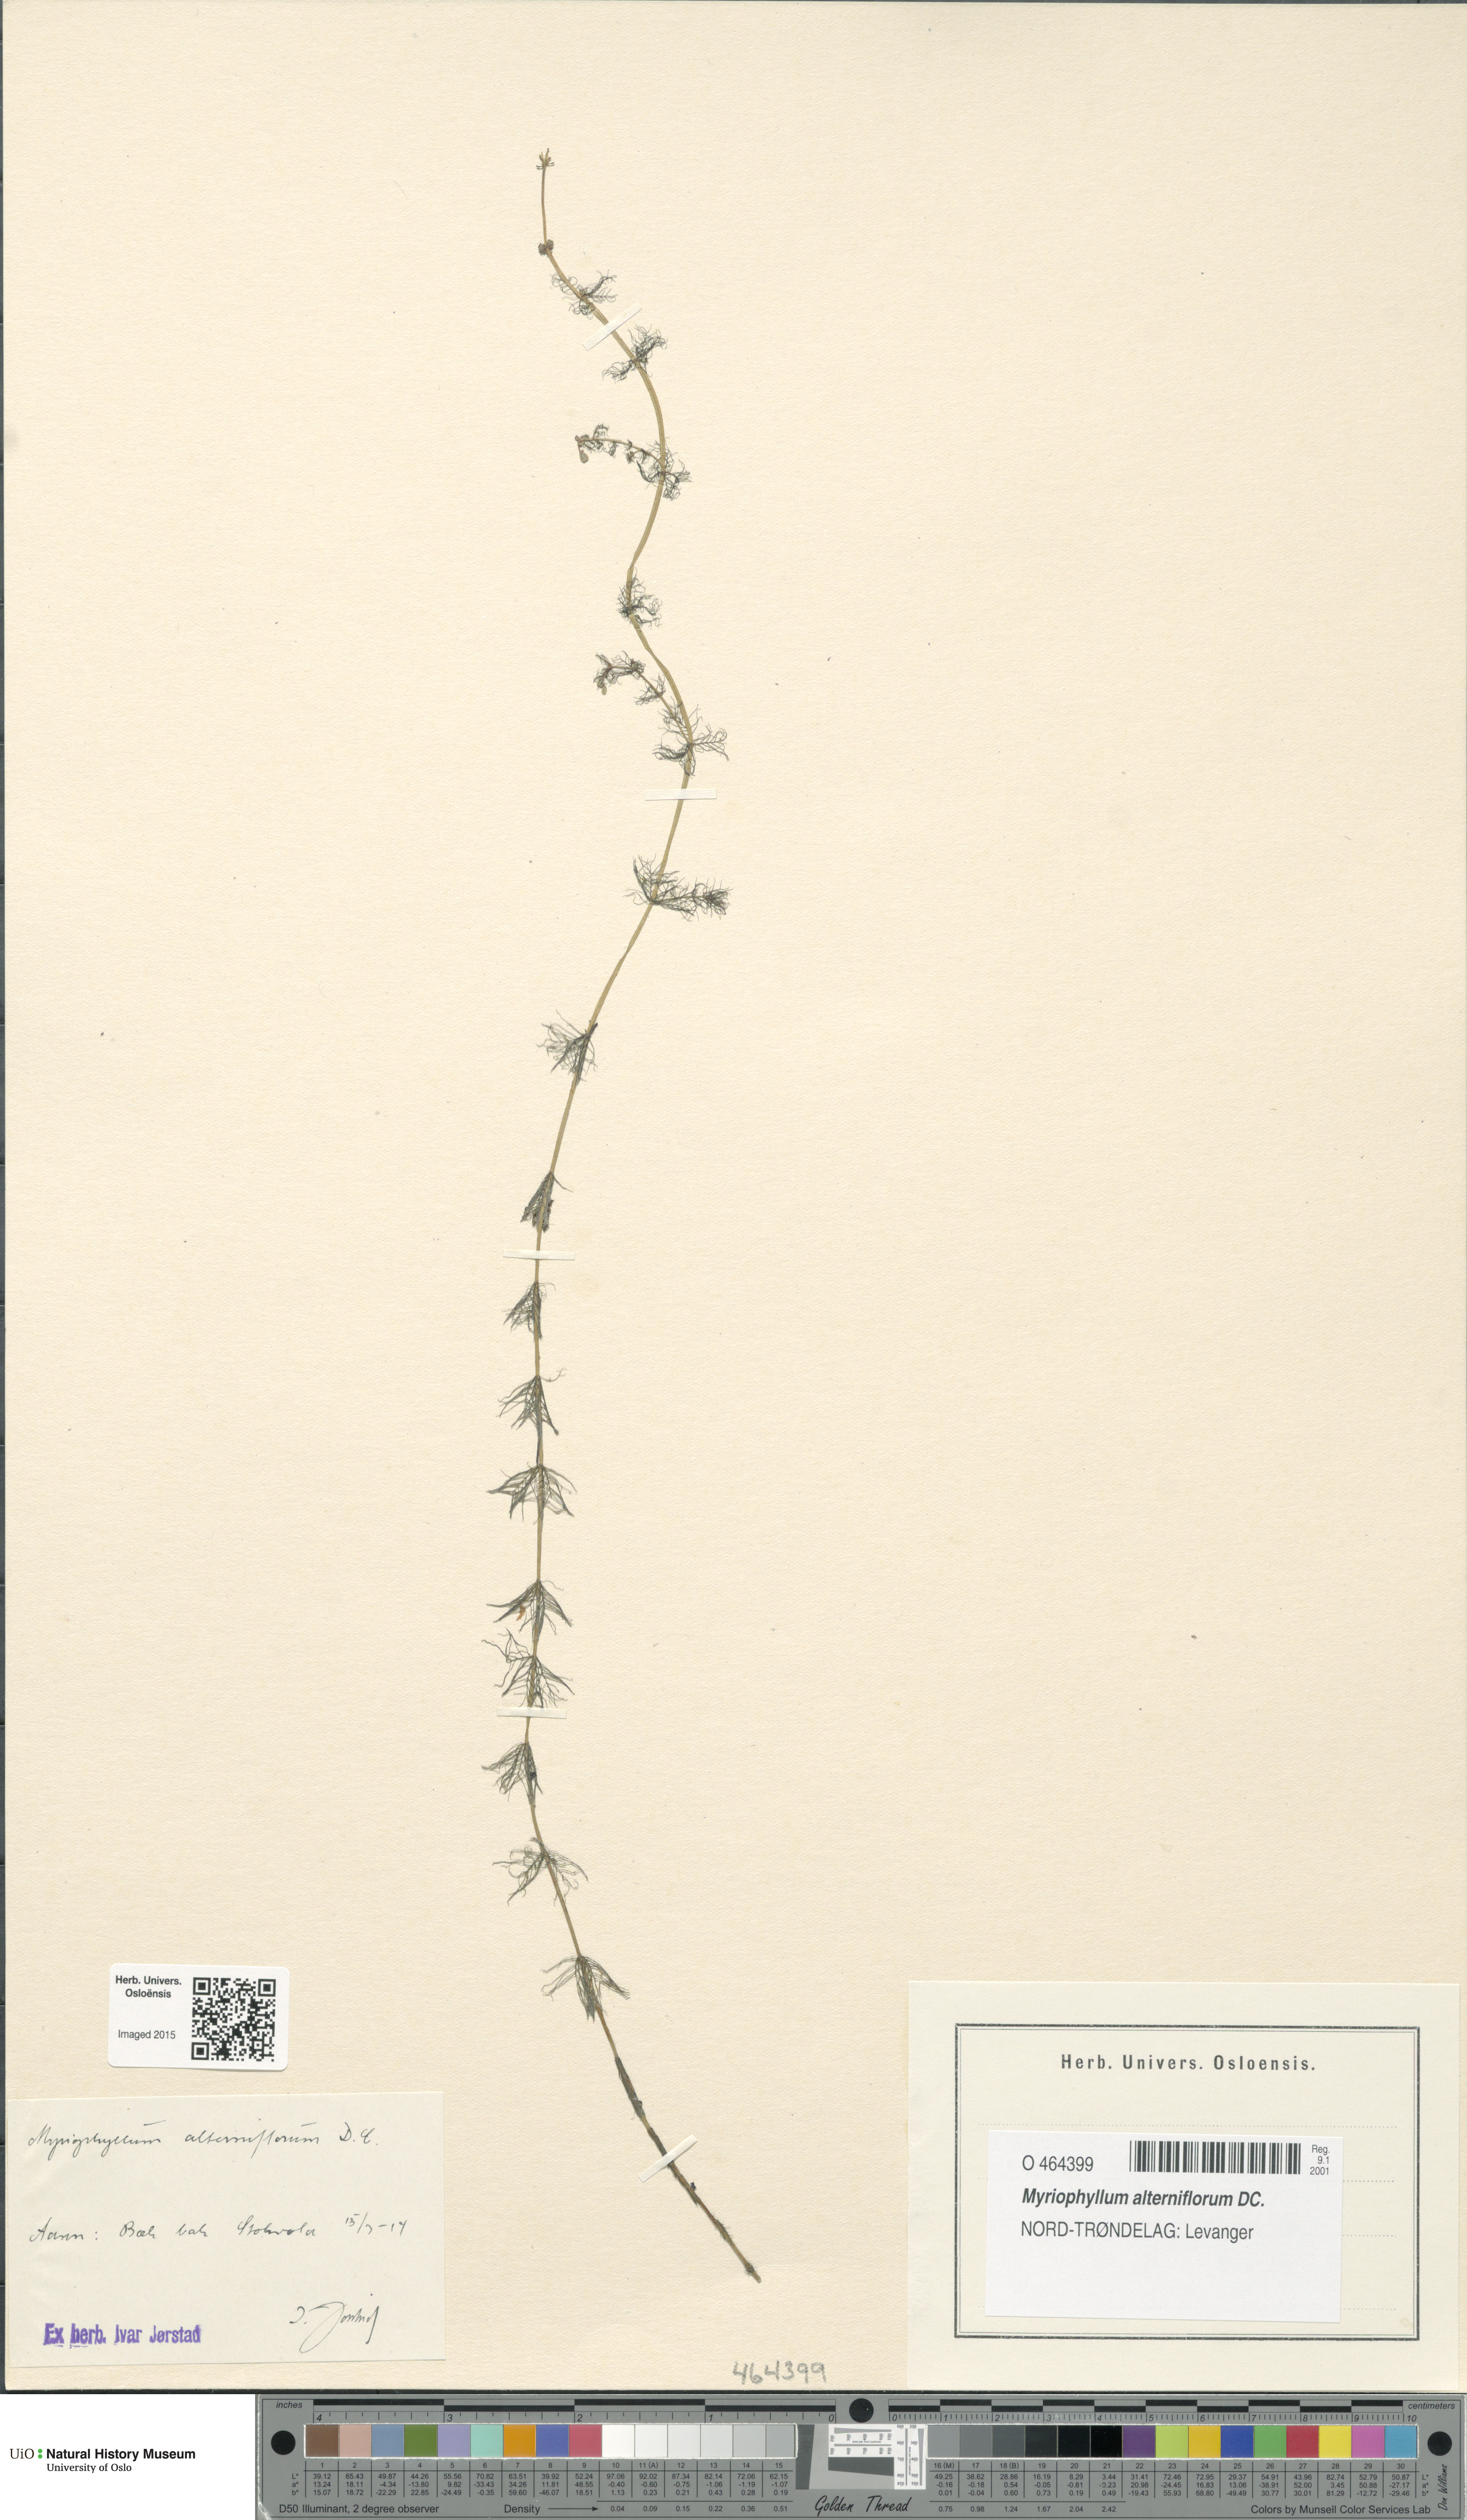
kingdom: Plantae
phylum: Tracheophyta
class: Magnoliopsida
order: Saxifragales
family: Haloragaceae
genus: Myriophyllum
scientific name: Myriophyllum alterniflorum
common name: Alternate water-milfoil
